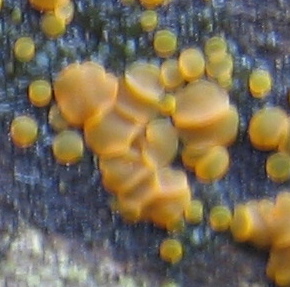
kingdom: Fungi
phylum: Ascomycota
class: Orbiliomycetes
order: Orbiliales
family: Orbiliaceae
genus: Orbilia
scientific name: Orbilia xanthostigma
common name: krumsporet voksskive
